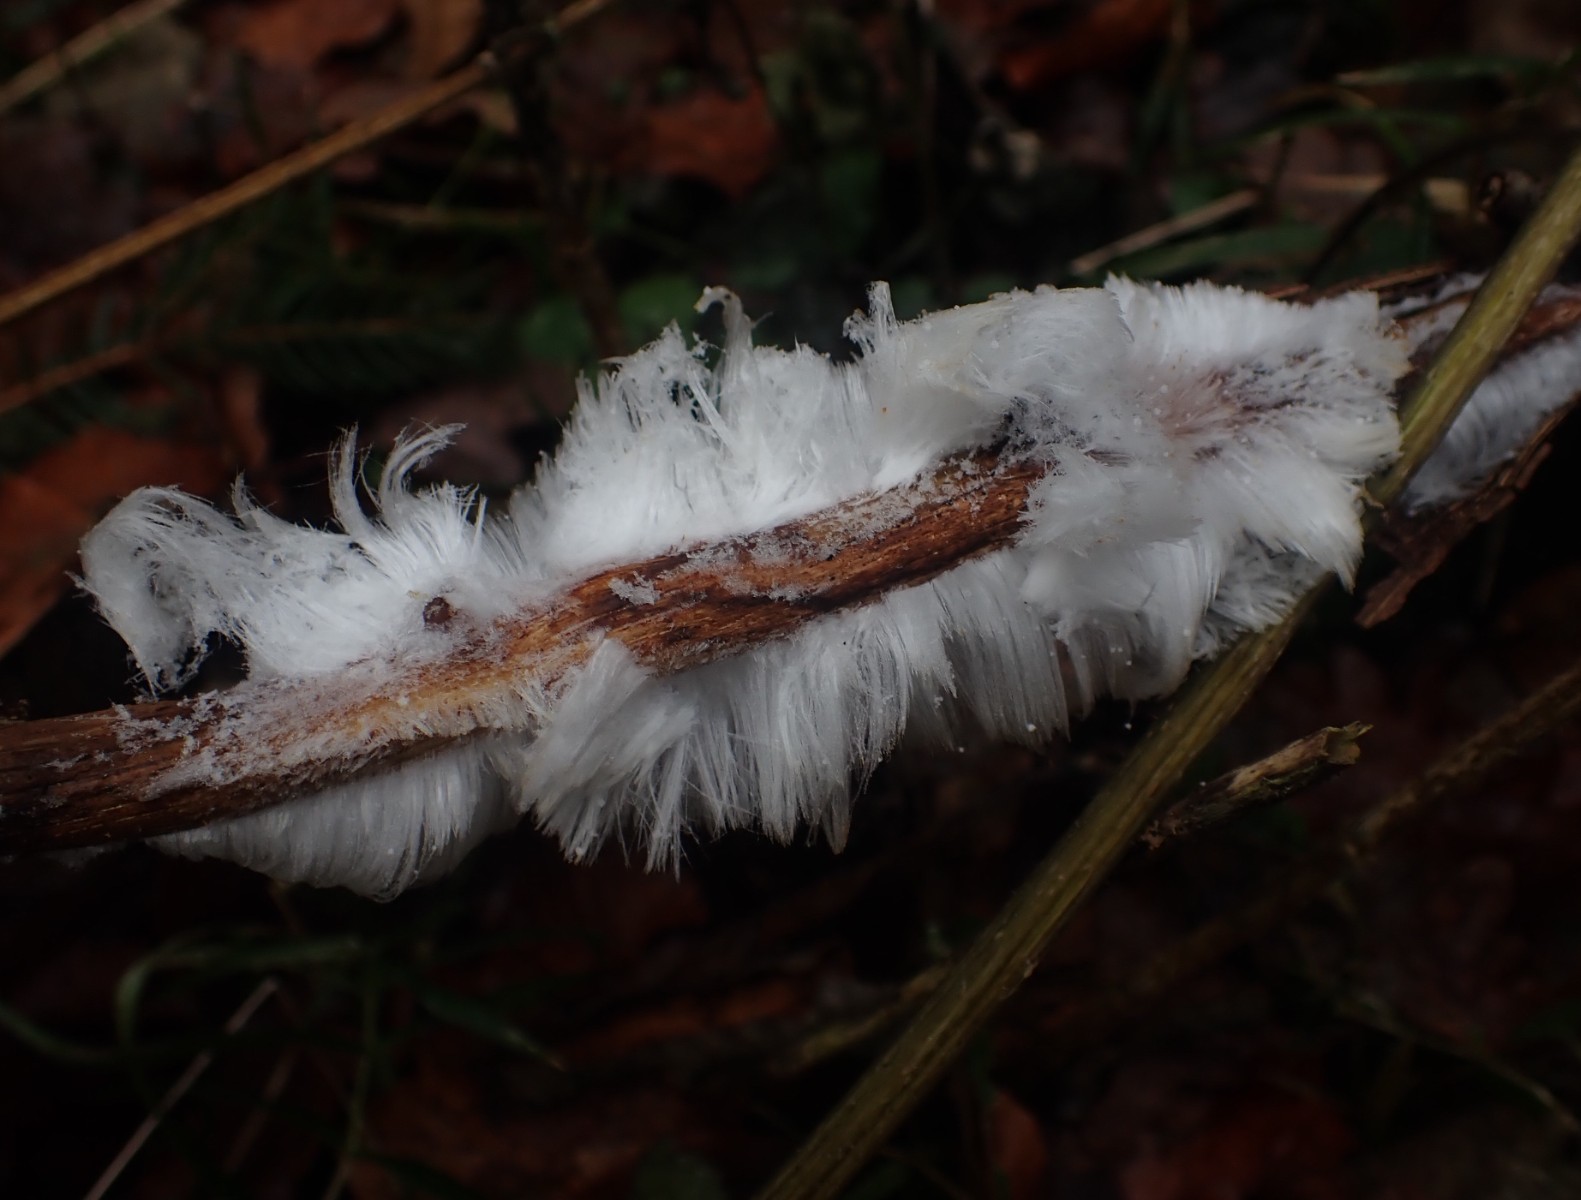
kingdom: Fungi
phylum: Basidiomycota
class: Tremellomycetes
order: Tremellales
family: Exidiaceae
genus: Exidiopsis
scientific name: Exidiopsis effusa
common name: smuk bævrehinde
